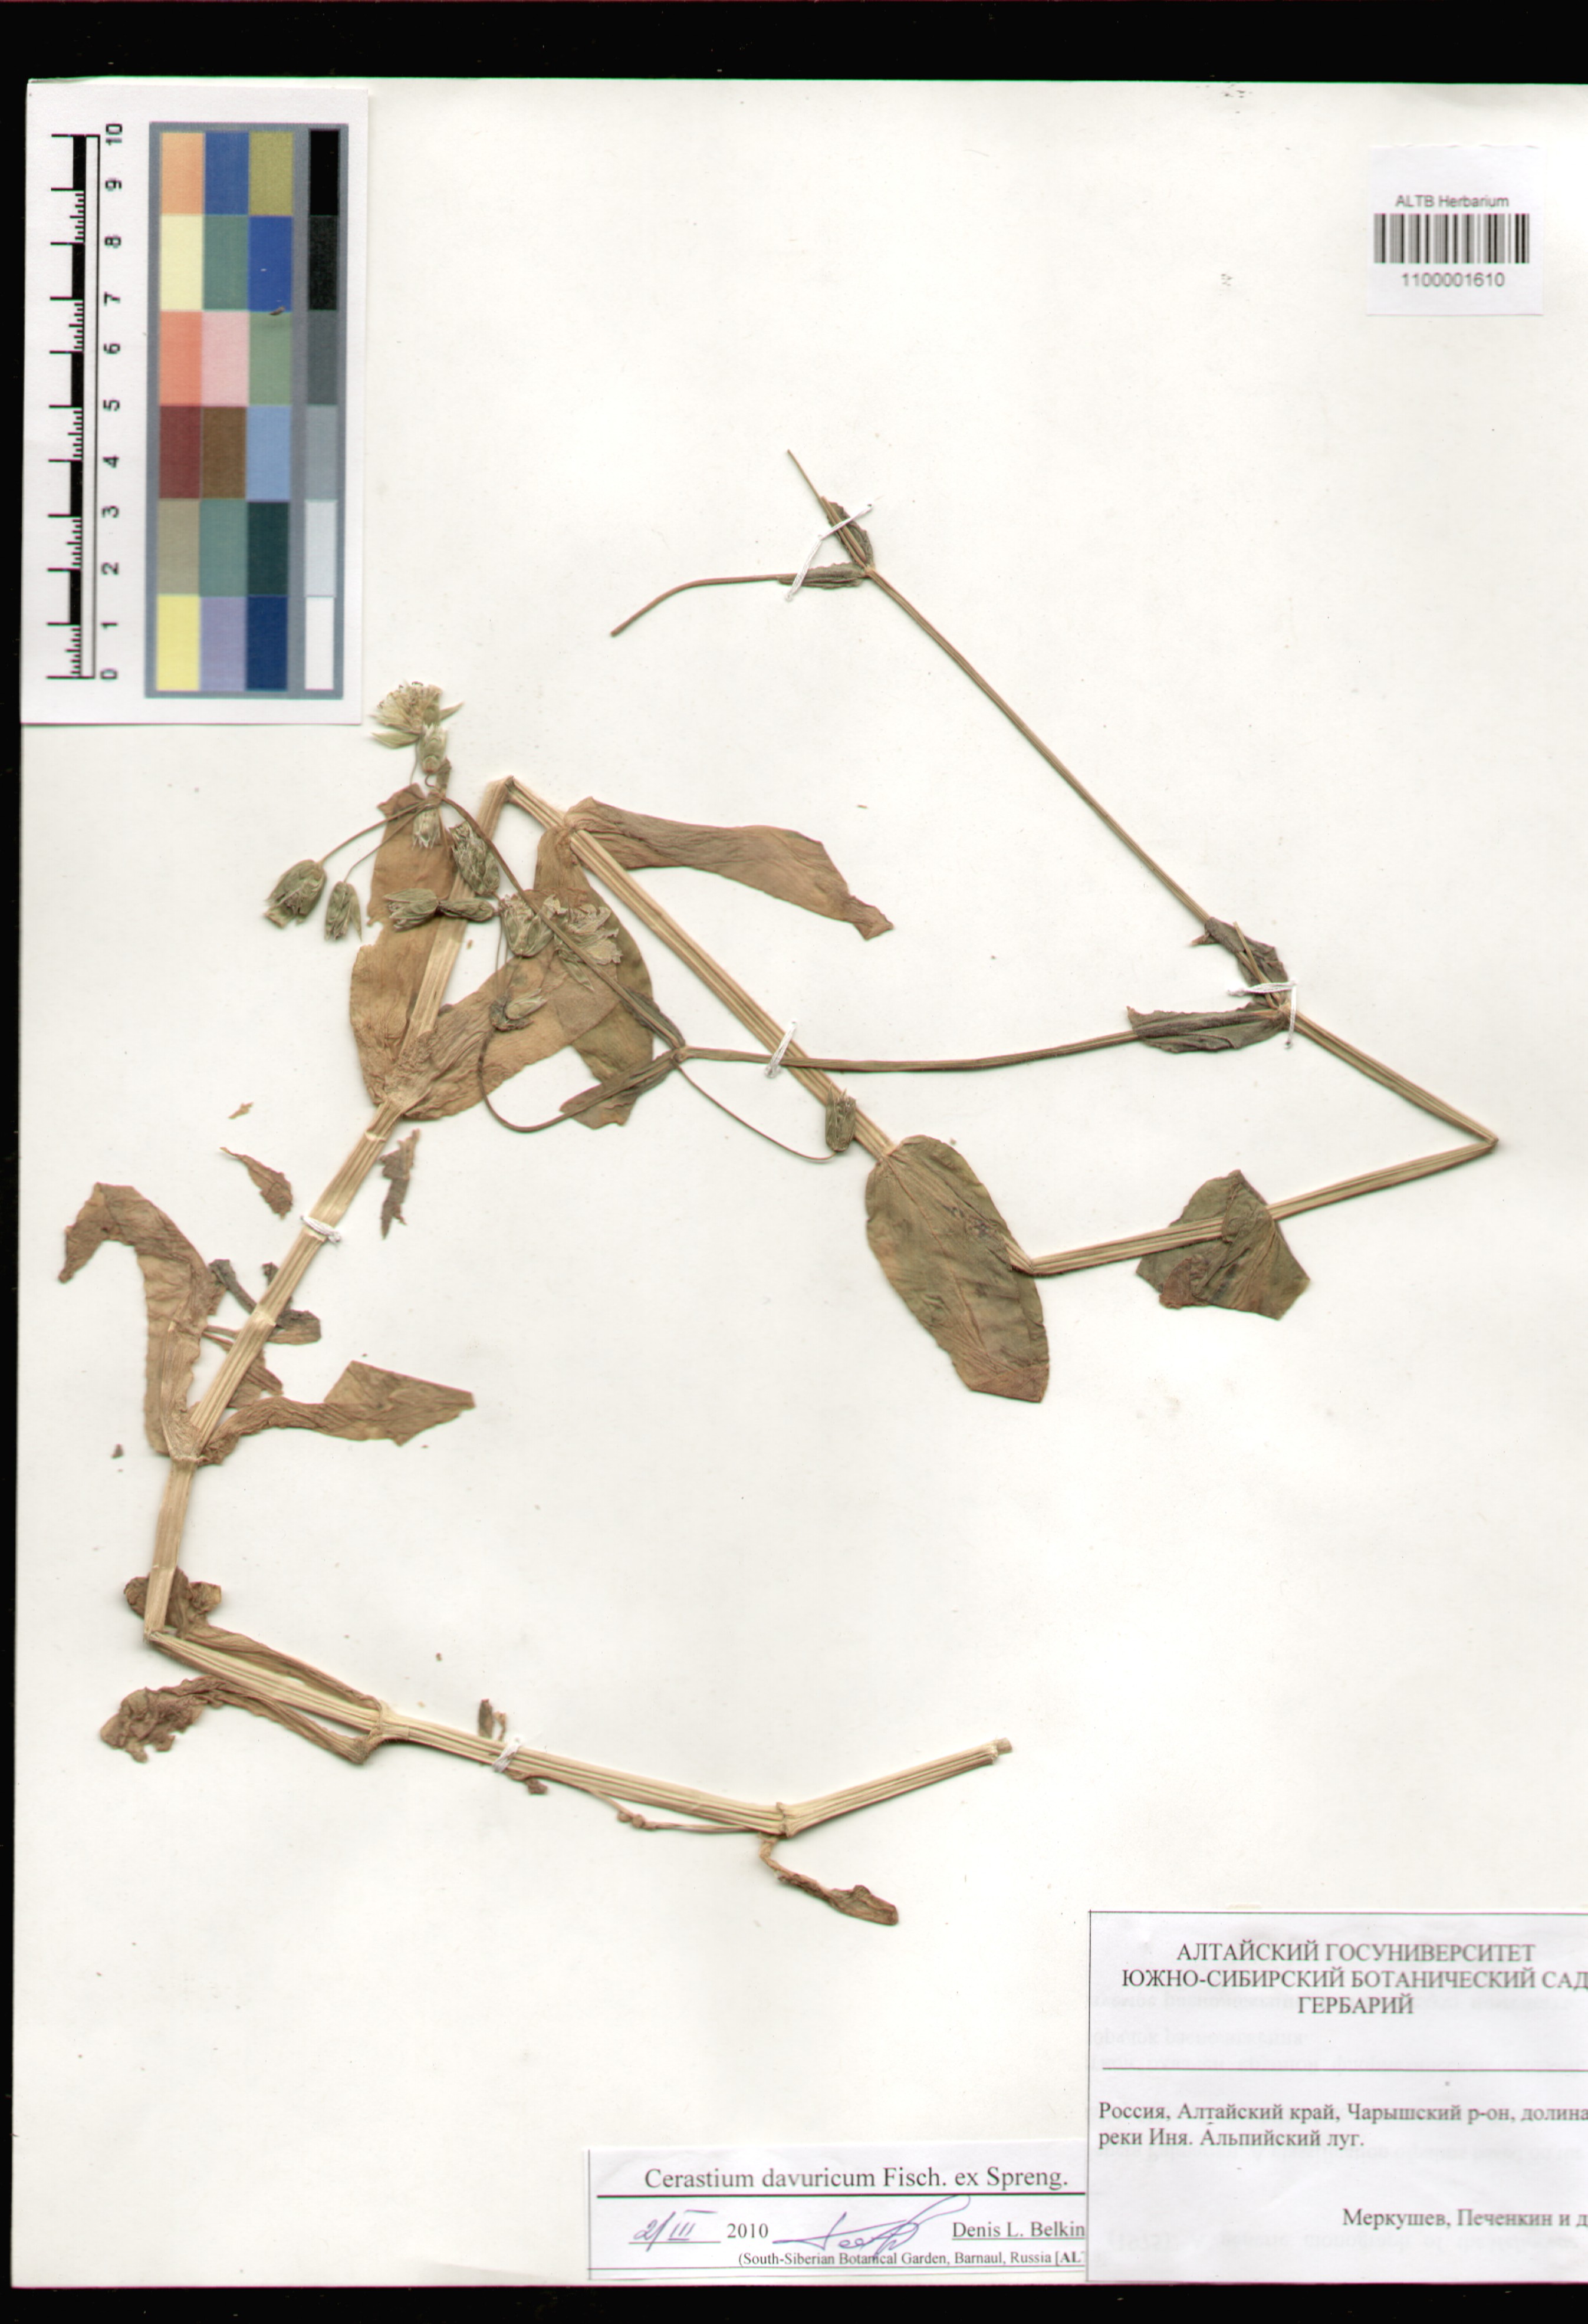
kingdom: Plantae
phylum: Tracheophyta
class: Magnoliopsida
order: Caryophyllales
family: Caryophyllaceae
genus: Dichodon
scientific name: Dichodon davuricum
